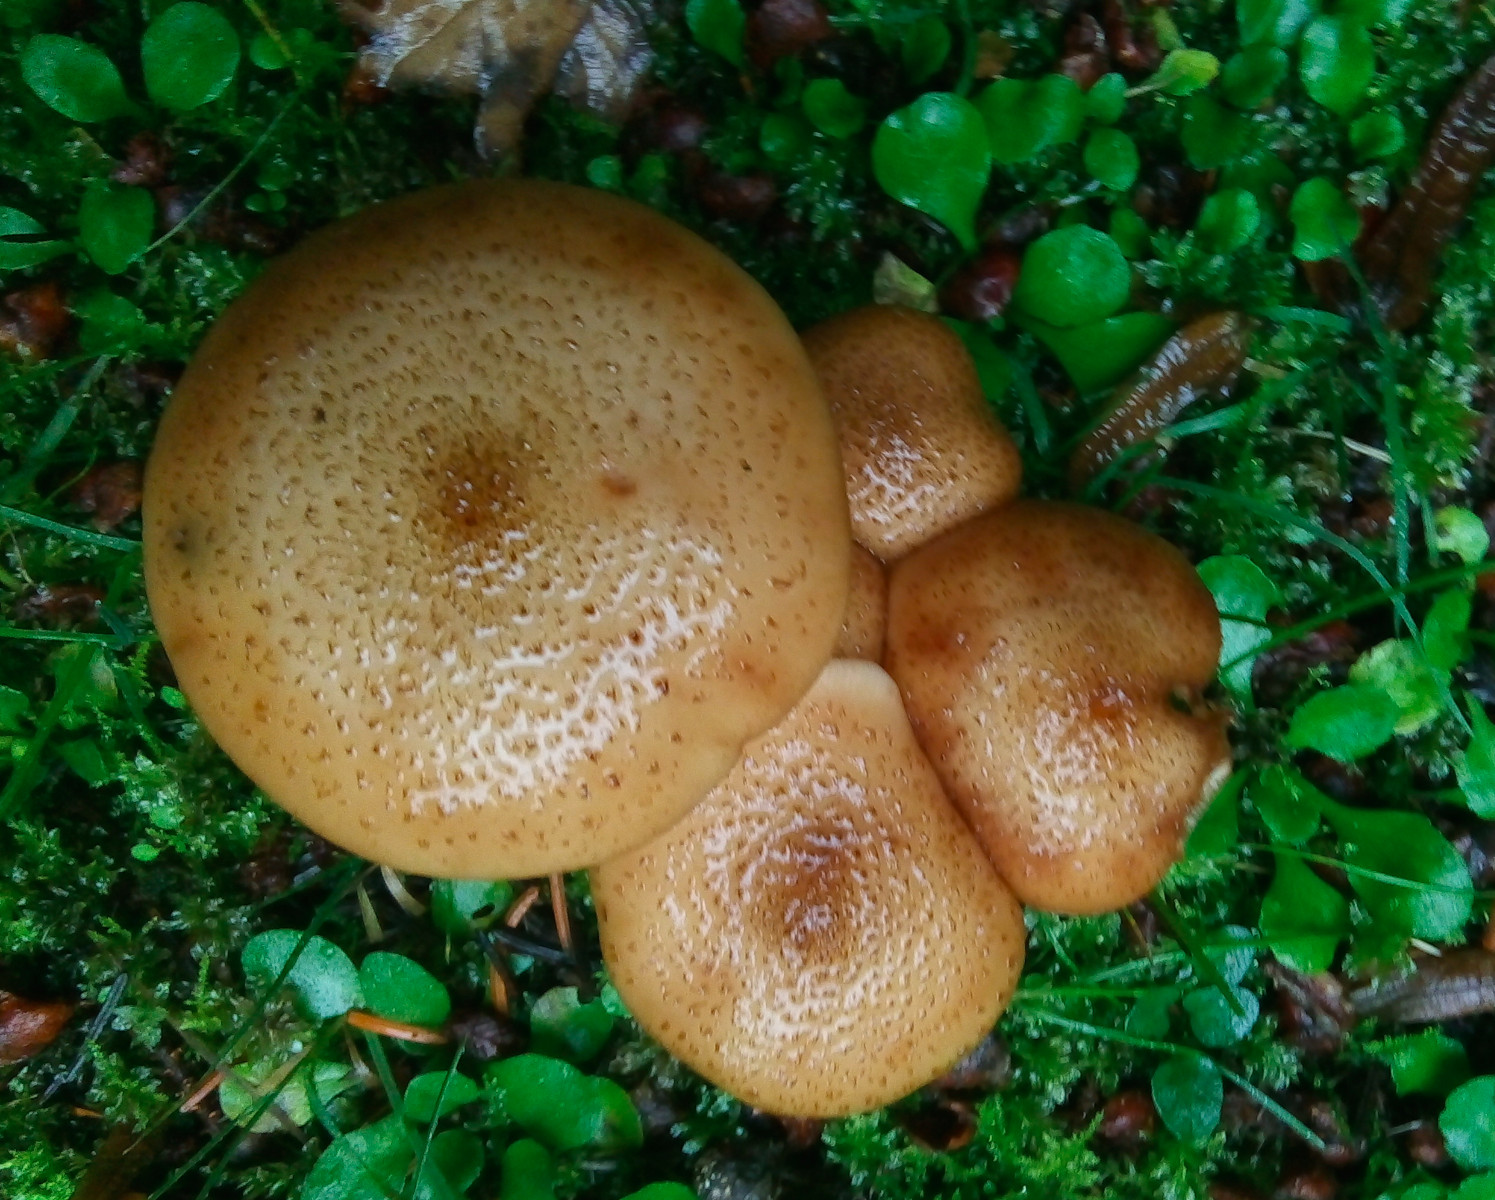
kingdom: Fungi
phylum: Basidiomycota
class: Agaricomycetes
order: Agaricales
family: Physalacriaceae
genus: Armillaria
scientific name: Armillaria ostoyae
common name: mørk honningsvamp
